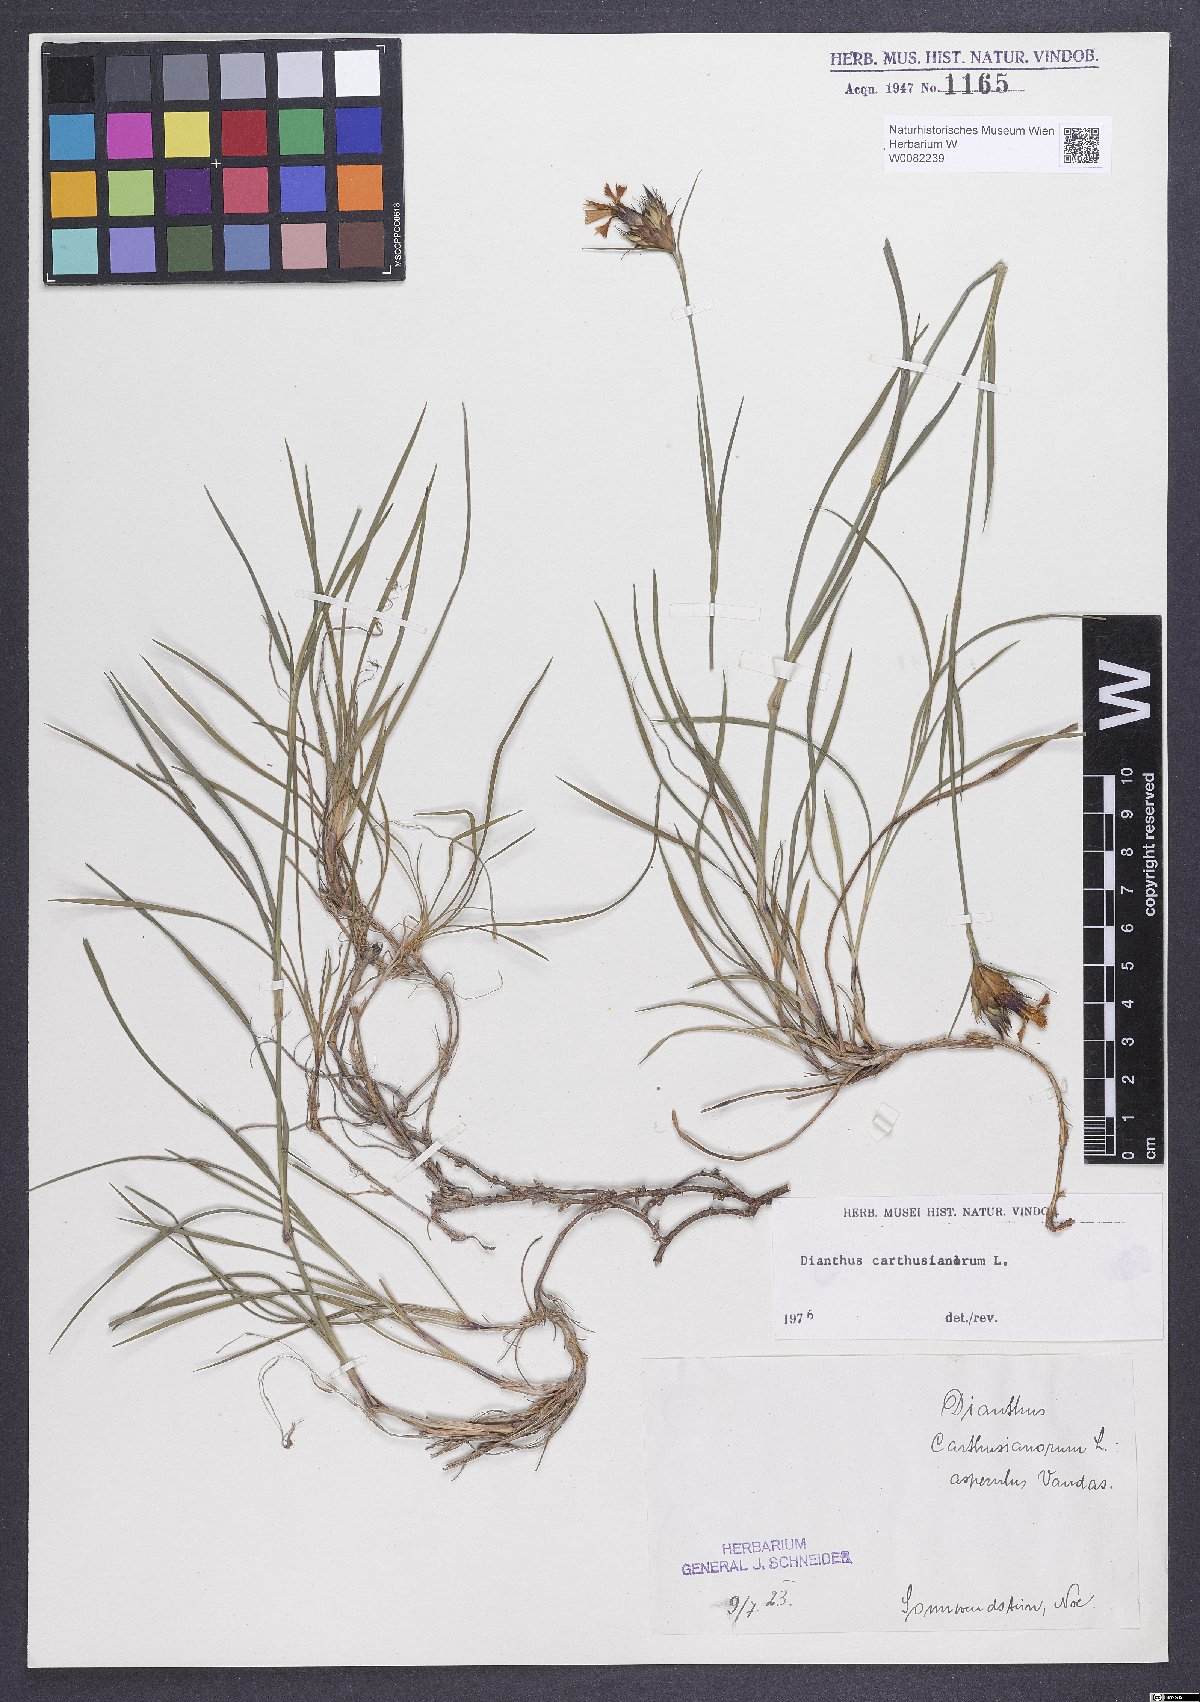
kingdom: Plantae
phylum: Tracheophyta
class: Magnoliopsida
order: Caryophyllales
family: Caryophyllaceae
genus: Dianthus
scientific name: Dianthus carthusianorum
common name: Carthusian pink
